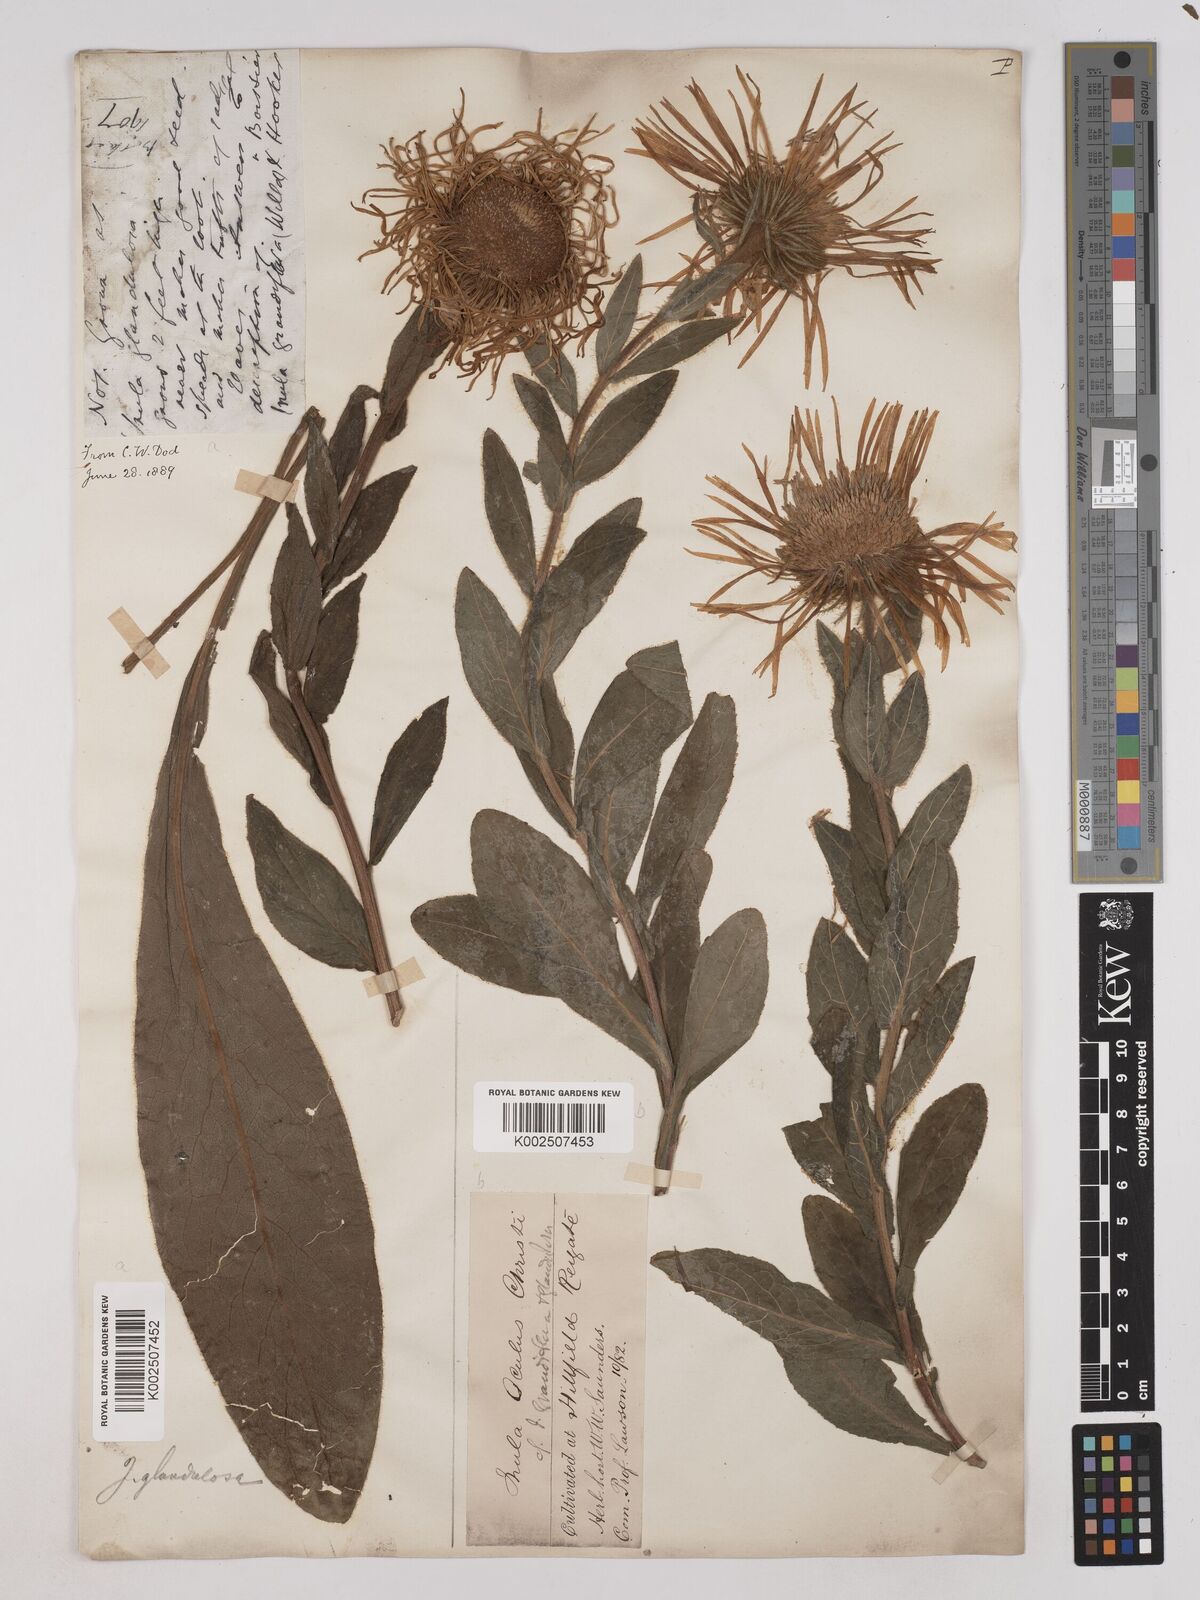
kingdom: Plantae
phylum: Tracheophyta
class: Magnoliopsida
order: Asterales
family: Asteraceae
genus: Pentanema
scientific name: Pentanema orientale
